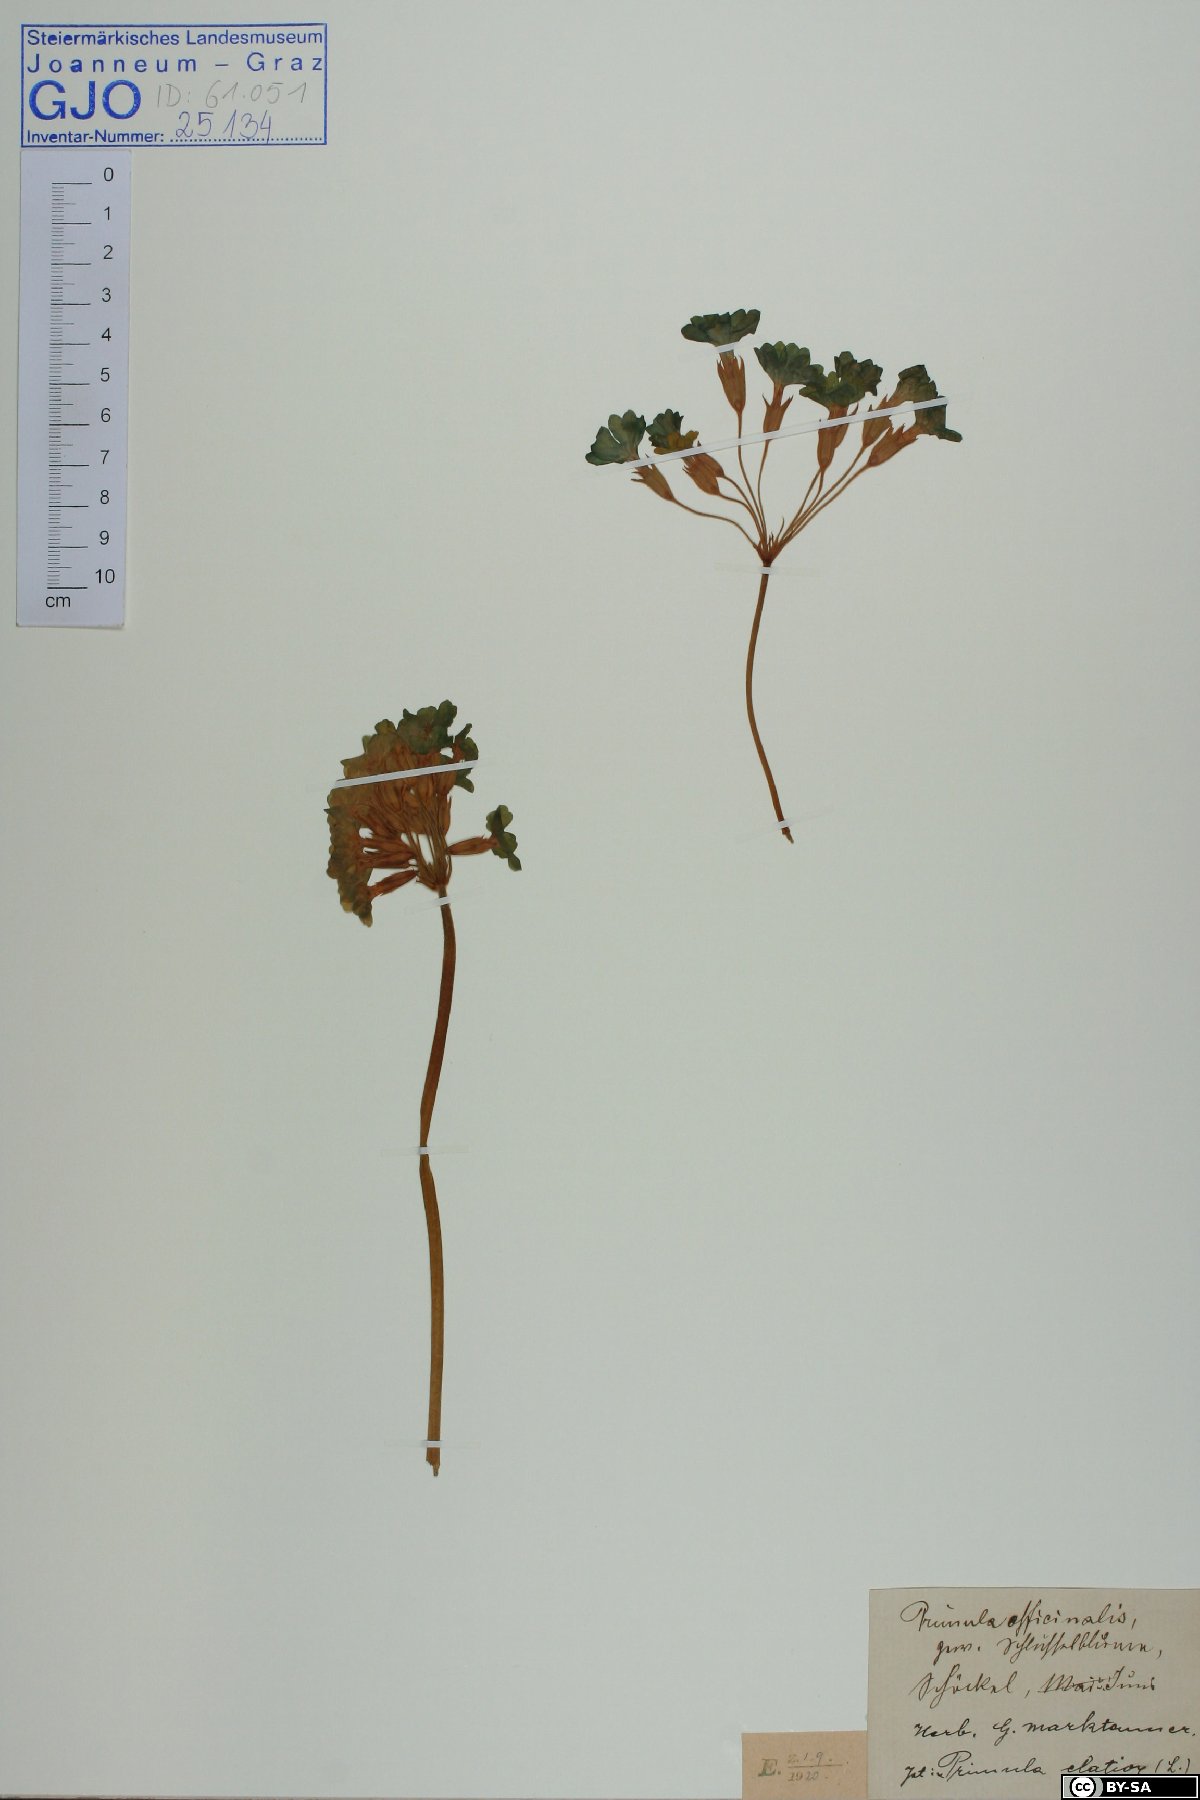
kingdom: Plantae
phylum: Tracheophyta
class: Magnoliopsida
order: Ericales
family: Primulaceae
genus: Primula
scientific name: Primula elatior
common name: Oxlip
